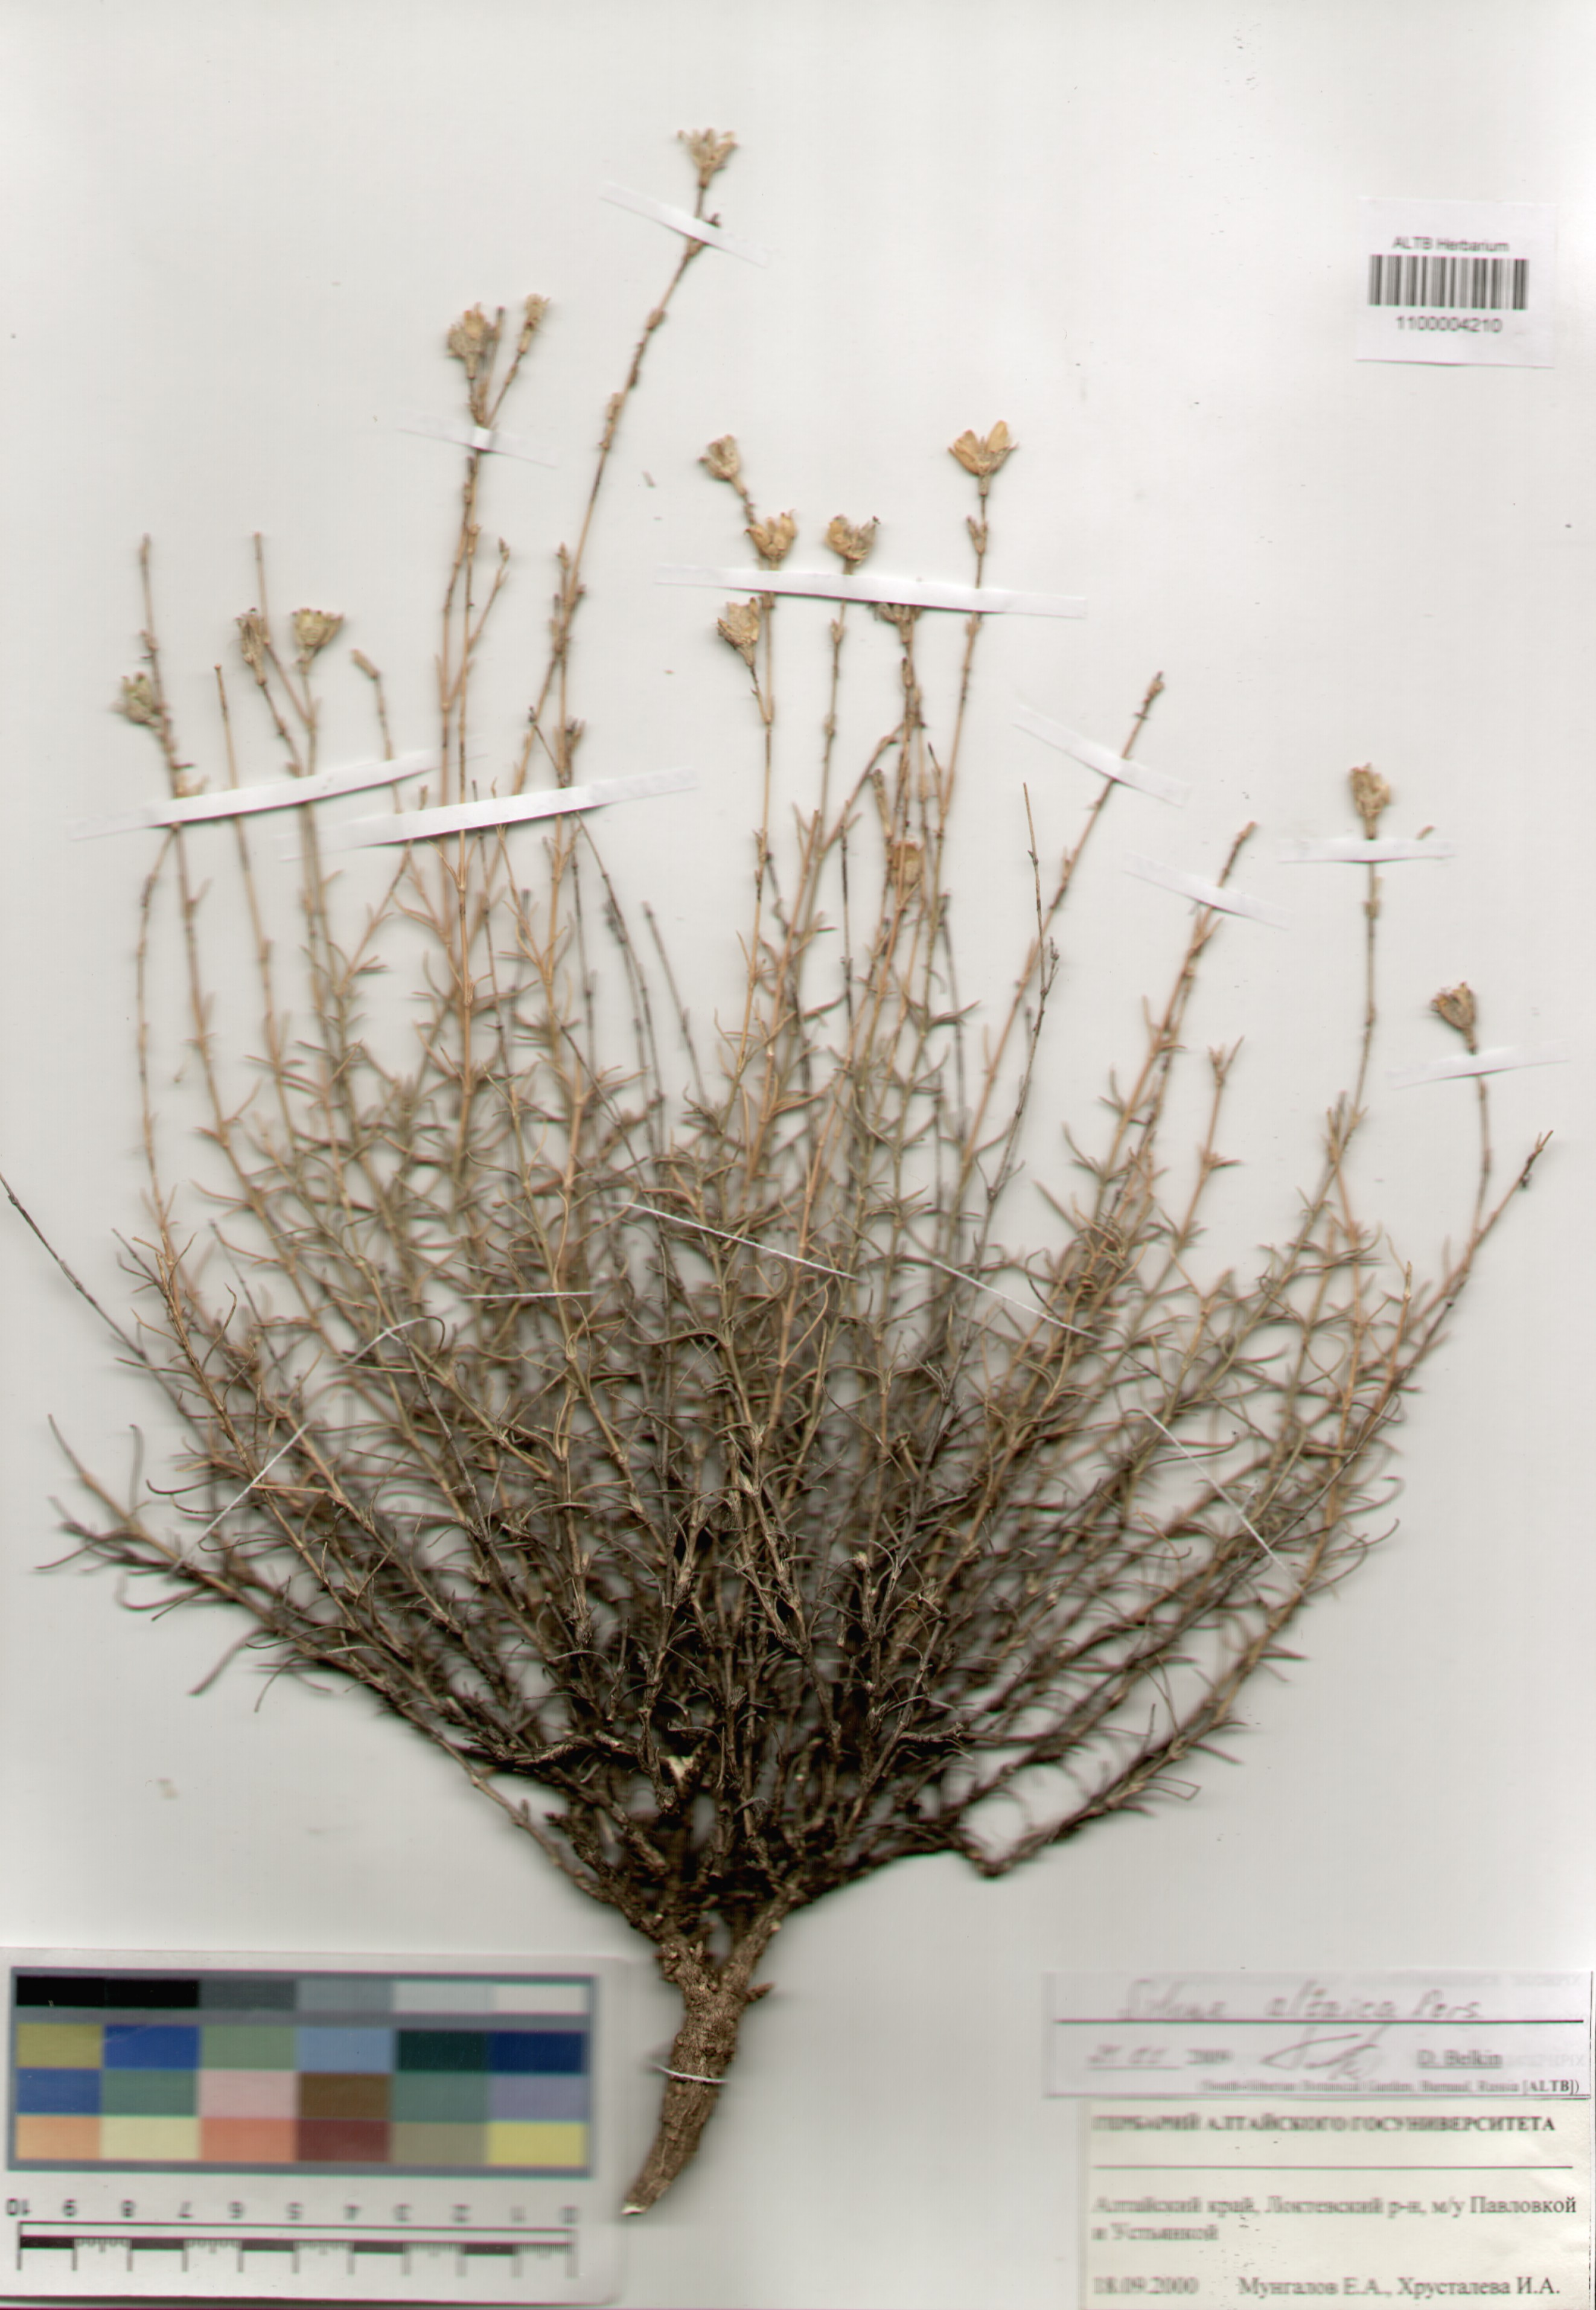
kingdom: Plantae
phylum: Tracheophyta
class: Magnoliopsida
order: Caryophyllales
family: Caryophyllaceae
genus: Silene
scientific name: Silene altaica
